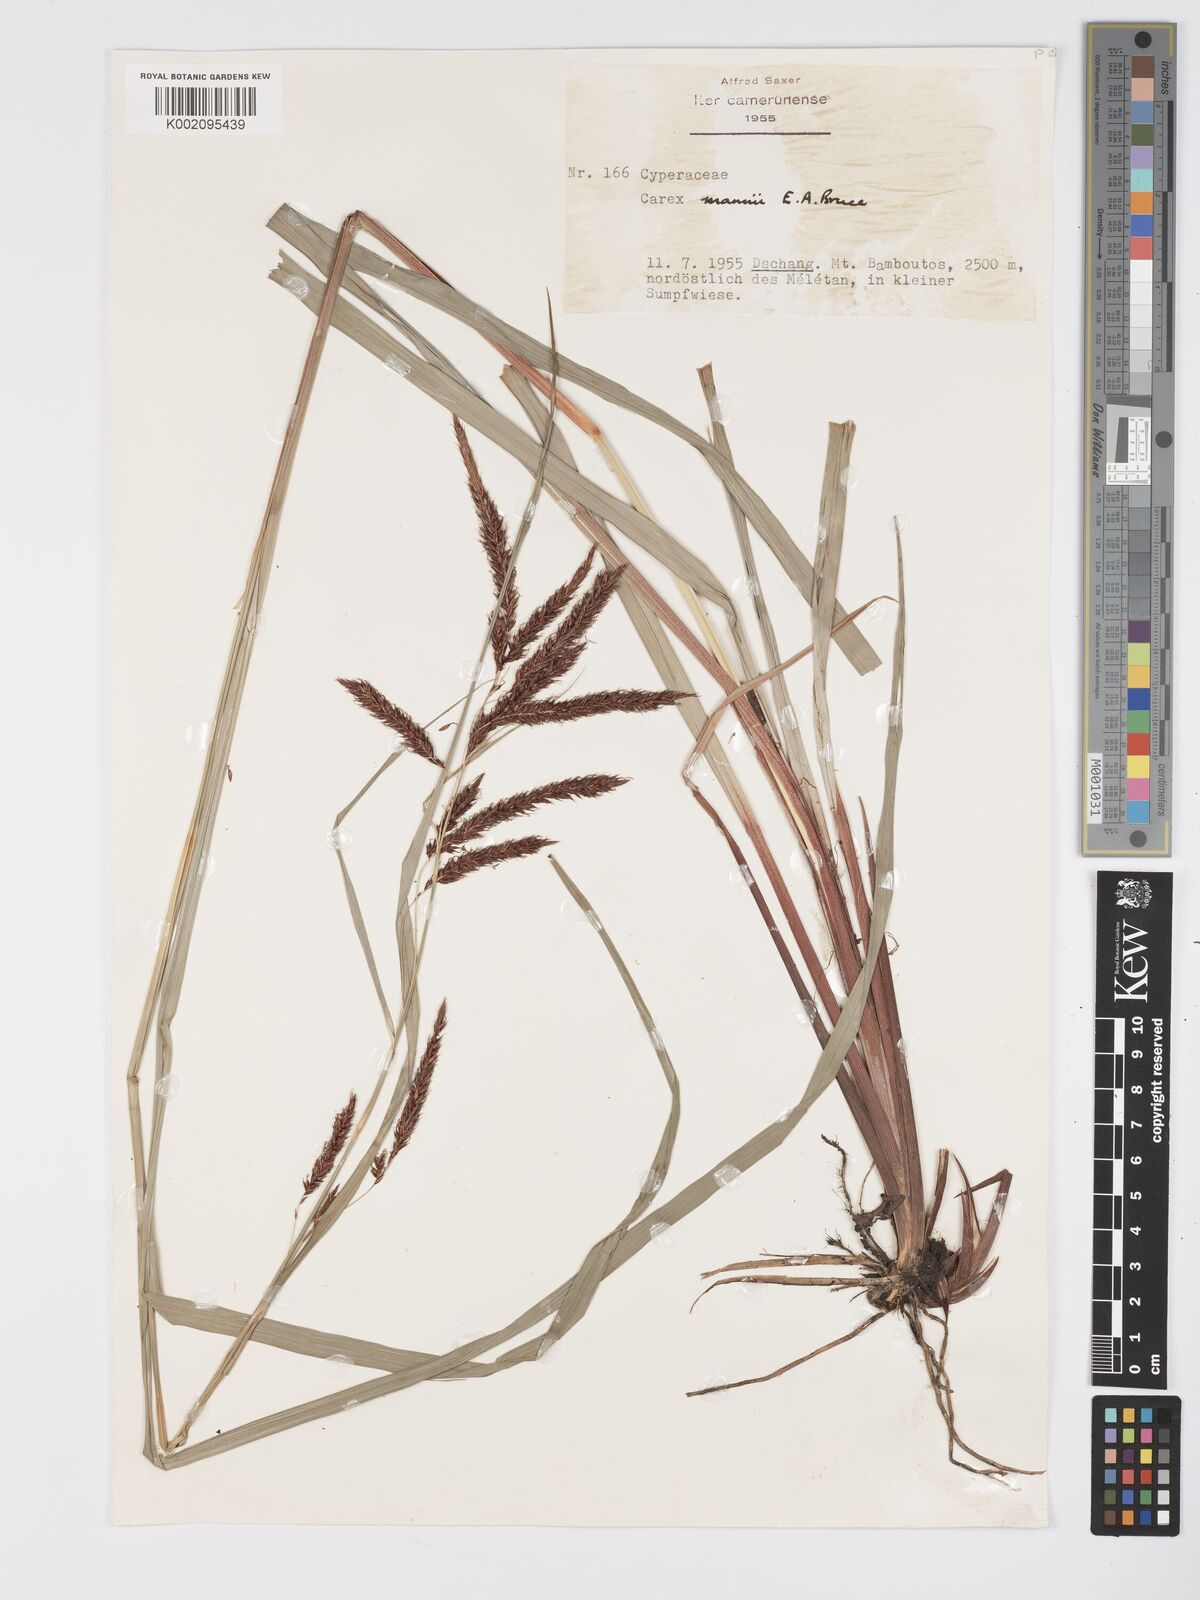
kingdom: Plantae
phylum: Tracheophyta
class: Liliopsida
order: Poales
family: Cyperaceae
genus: Carex
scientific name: Carex mannii
